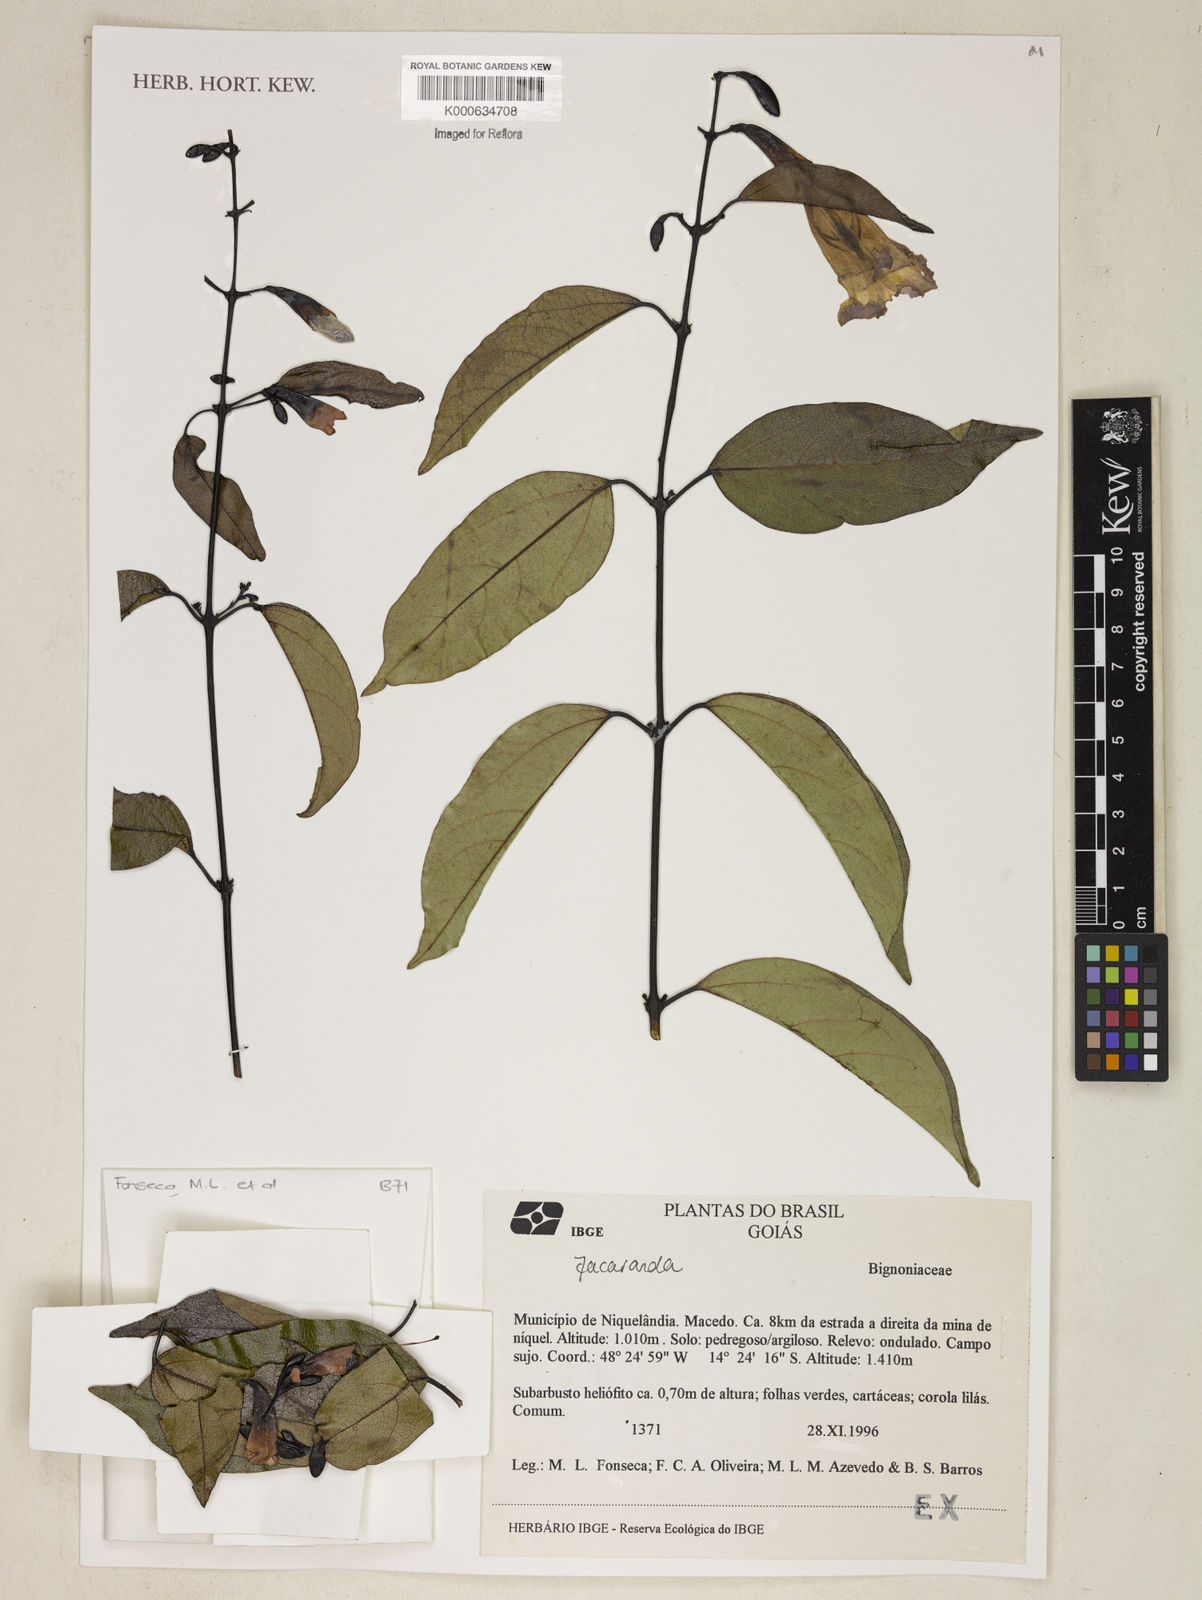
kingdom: Plantae
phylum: Tracheophyta
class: Magnoliopsida
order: Lamiales
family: Bignoniaceae
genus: Jacaranda
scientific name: Jacaranda
